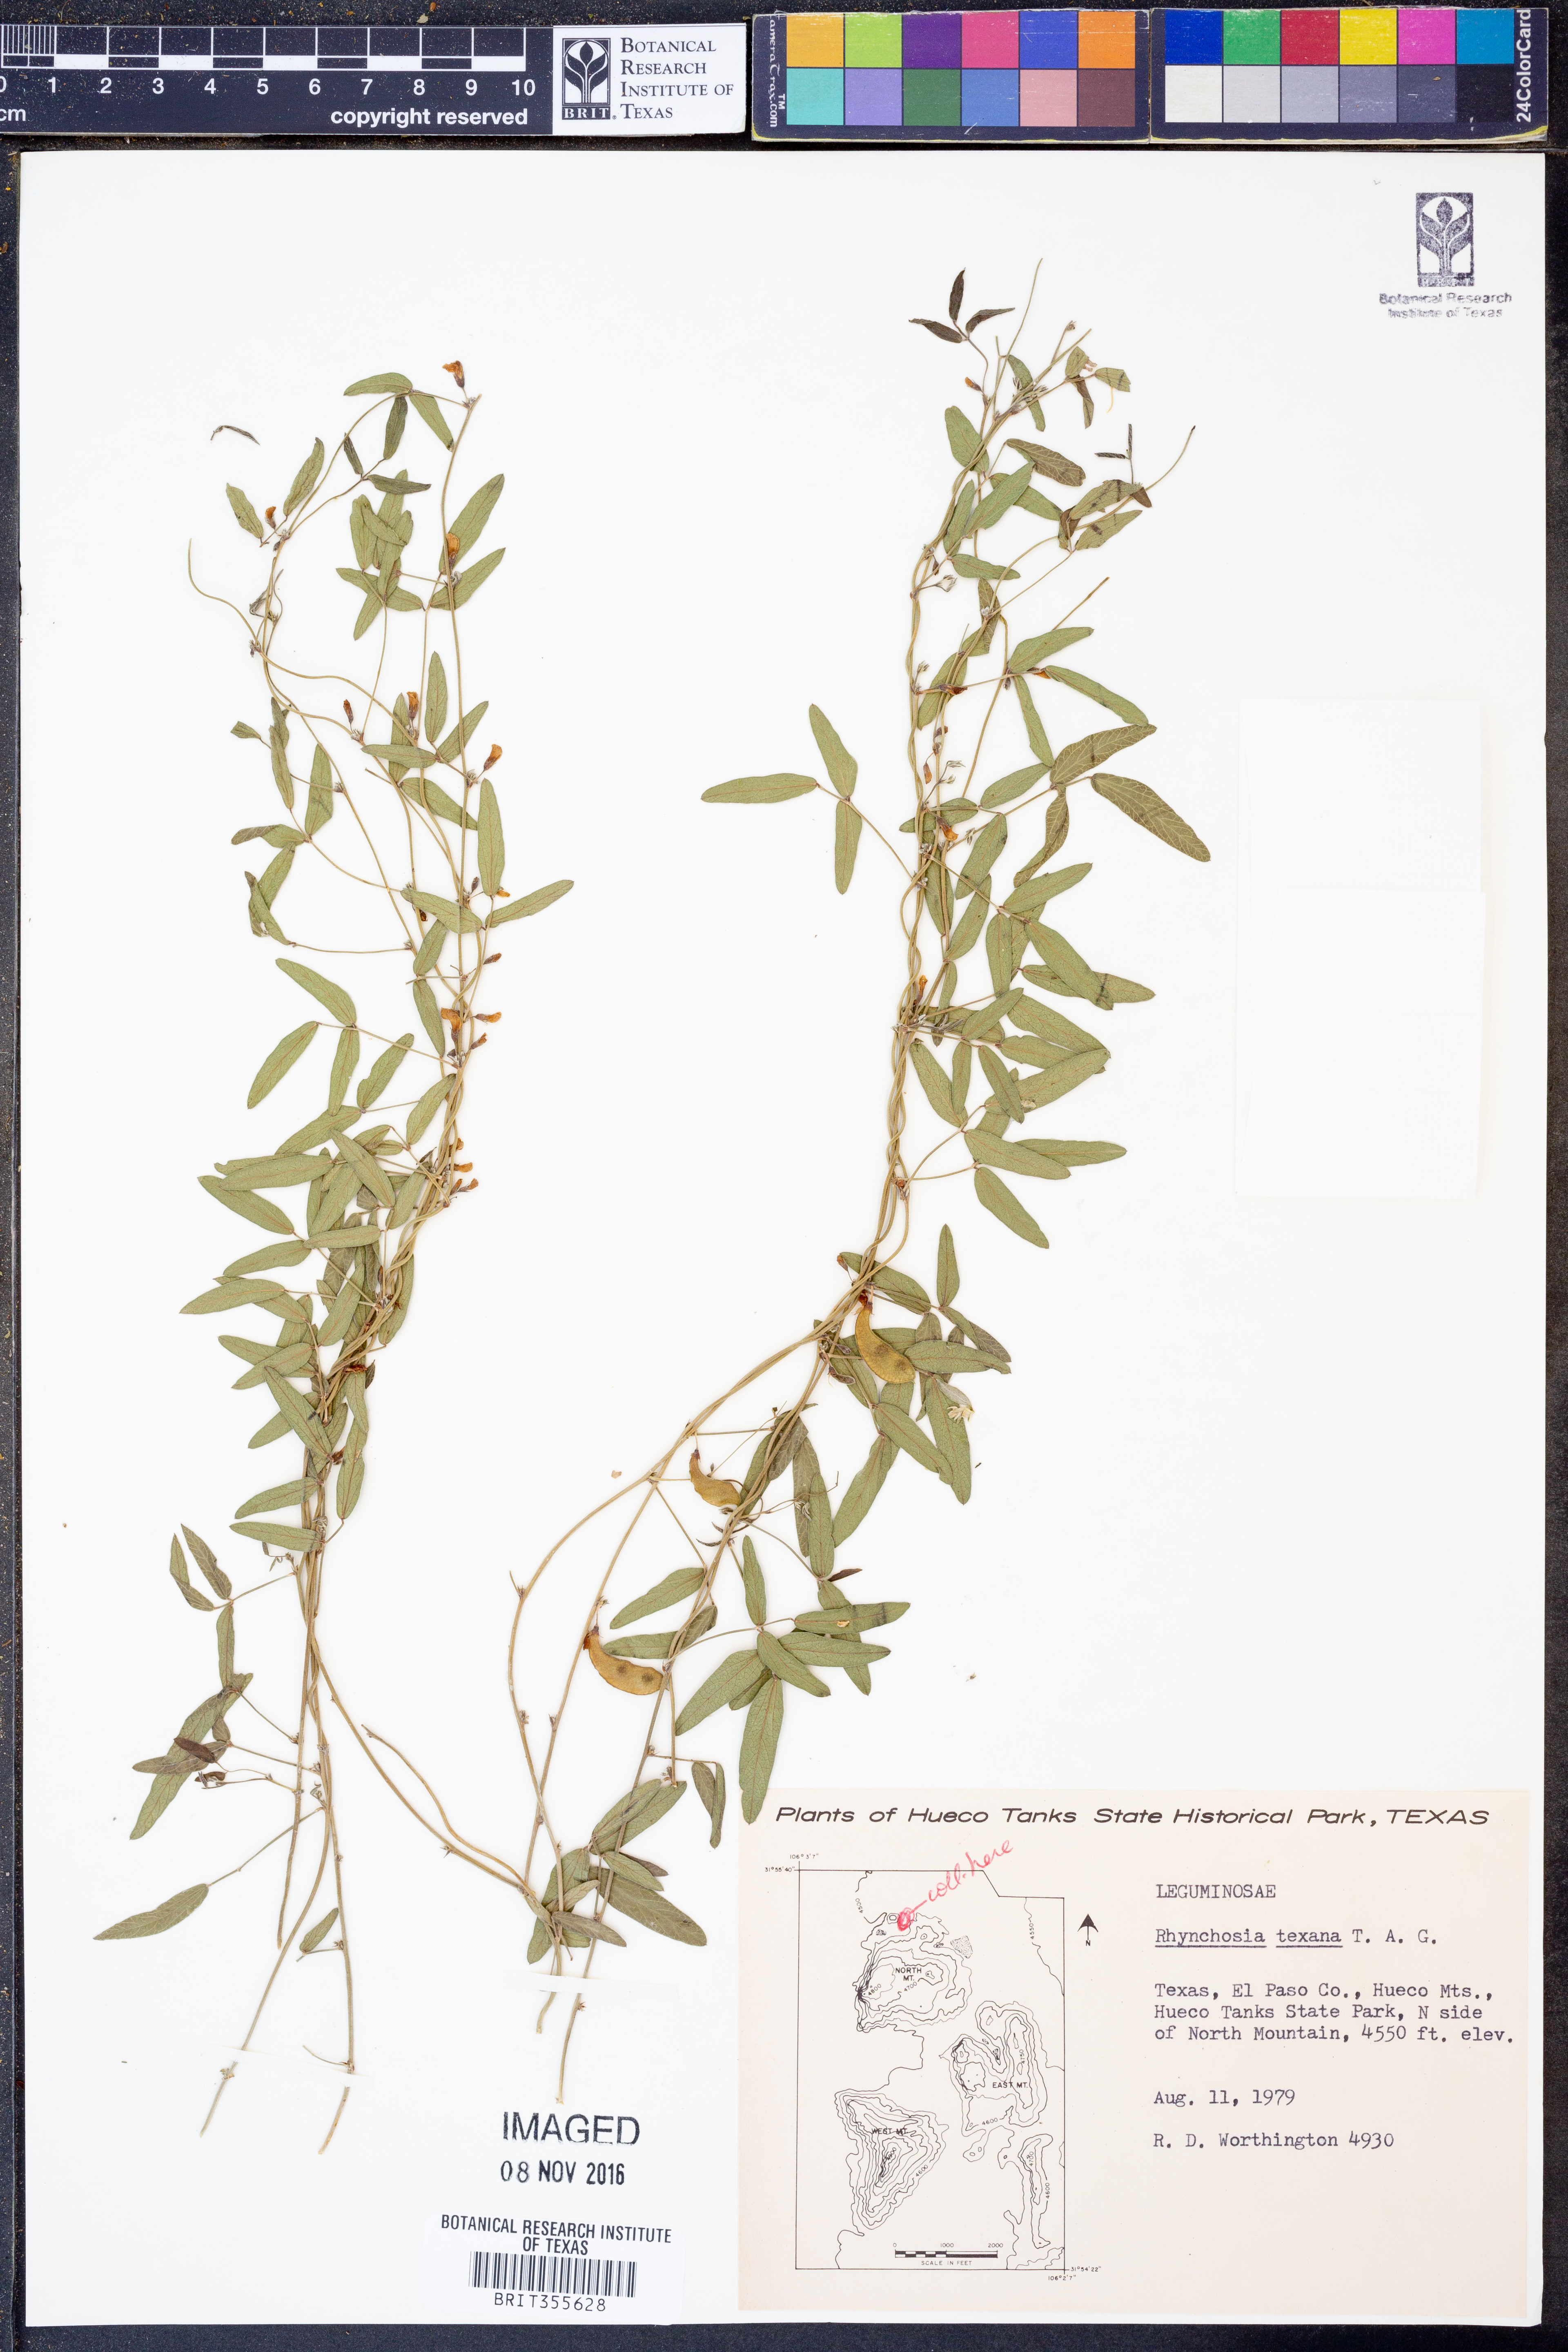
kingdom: Plantae
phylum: Tracheophyta
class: Magnoliopsida
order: Fabales
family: Fabaceae
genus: Rhynchosia
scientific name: Rhynchosia senna
